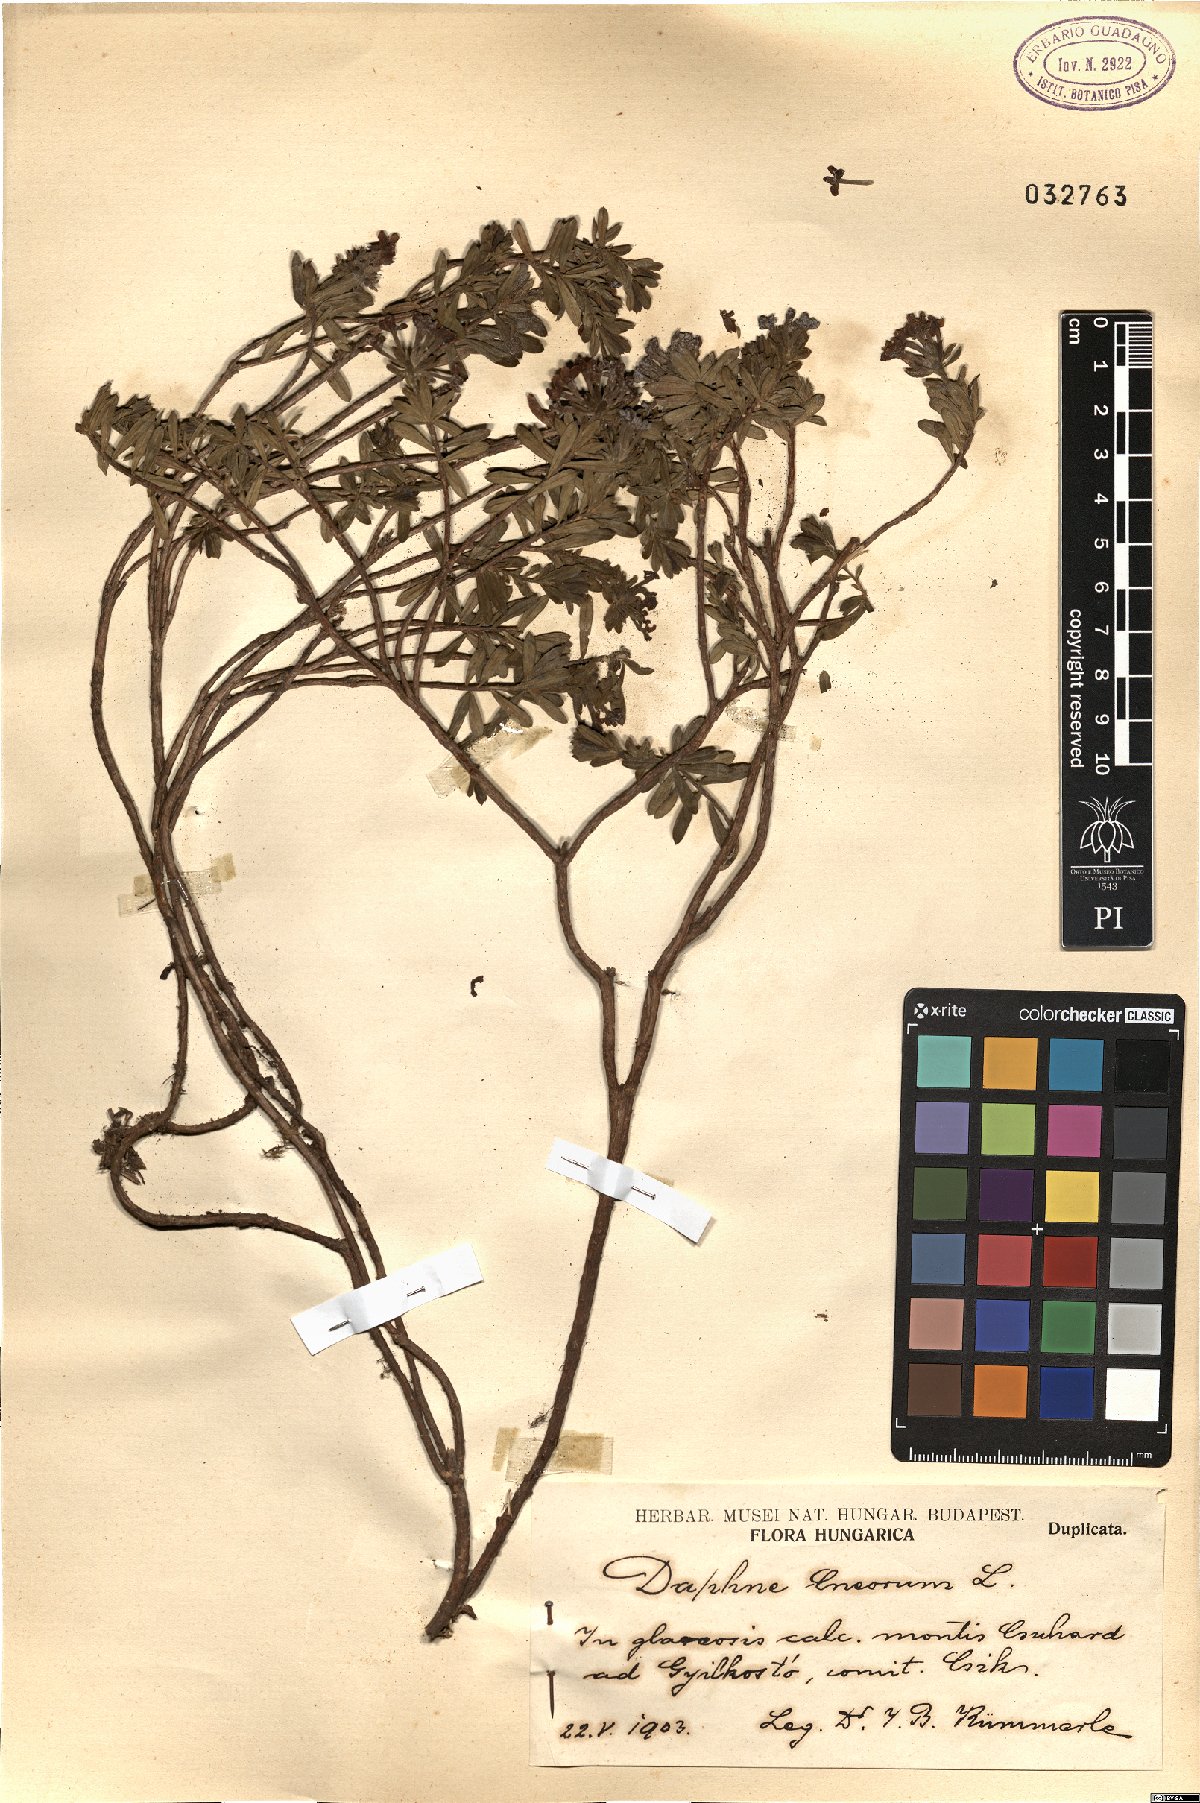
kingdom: Plantae
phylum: Tracheophyta
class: Magnoliopsida
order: Malvales
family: Thymelaeaceae
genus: Daphne
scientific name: Daphne cneorum
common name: Garland-flower
